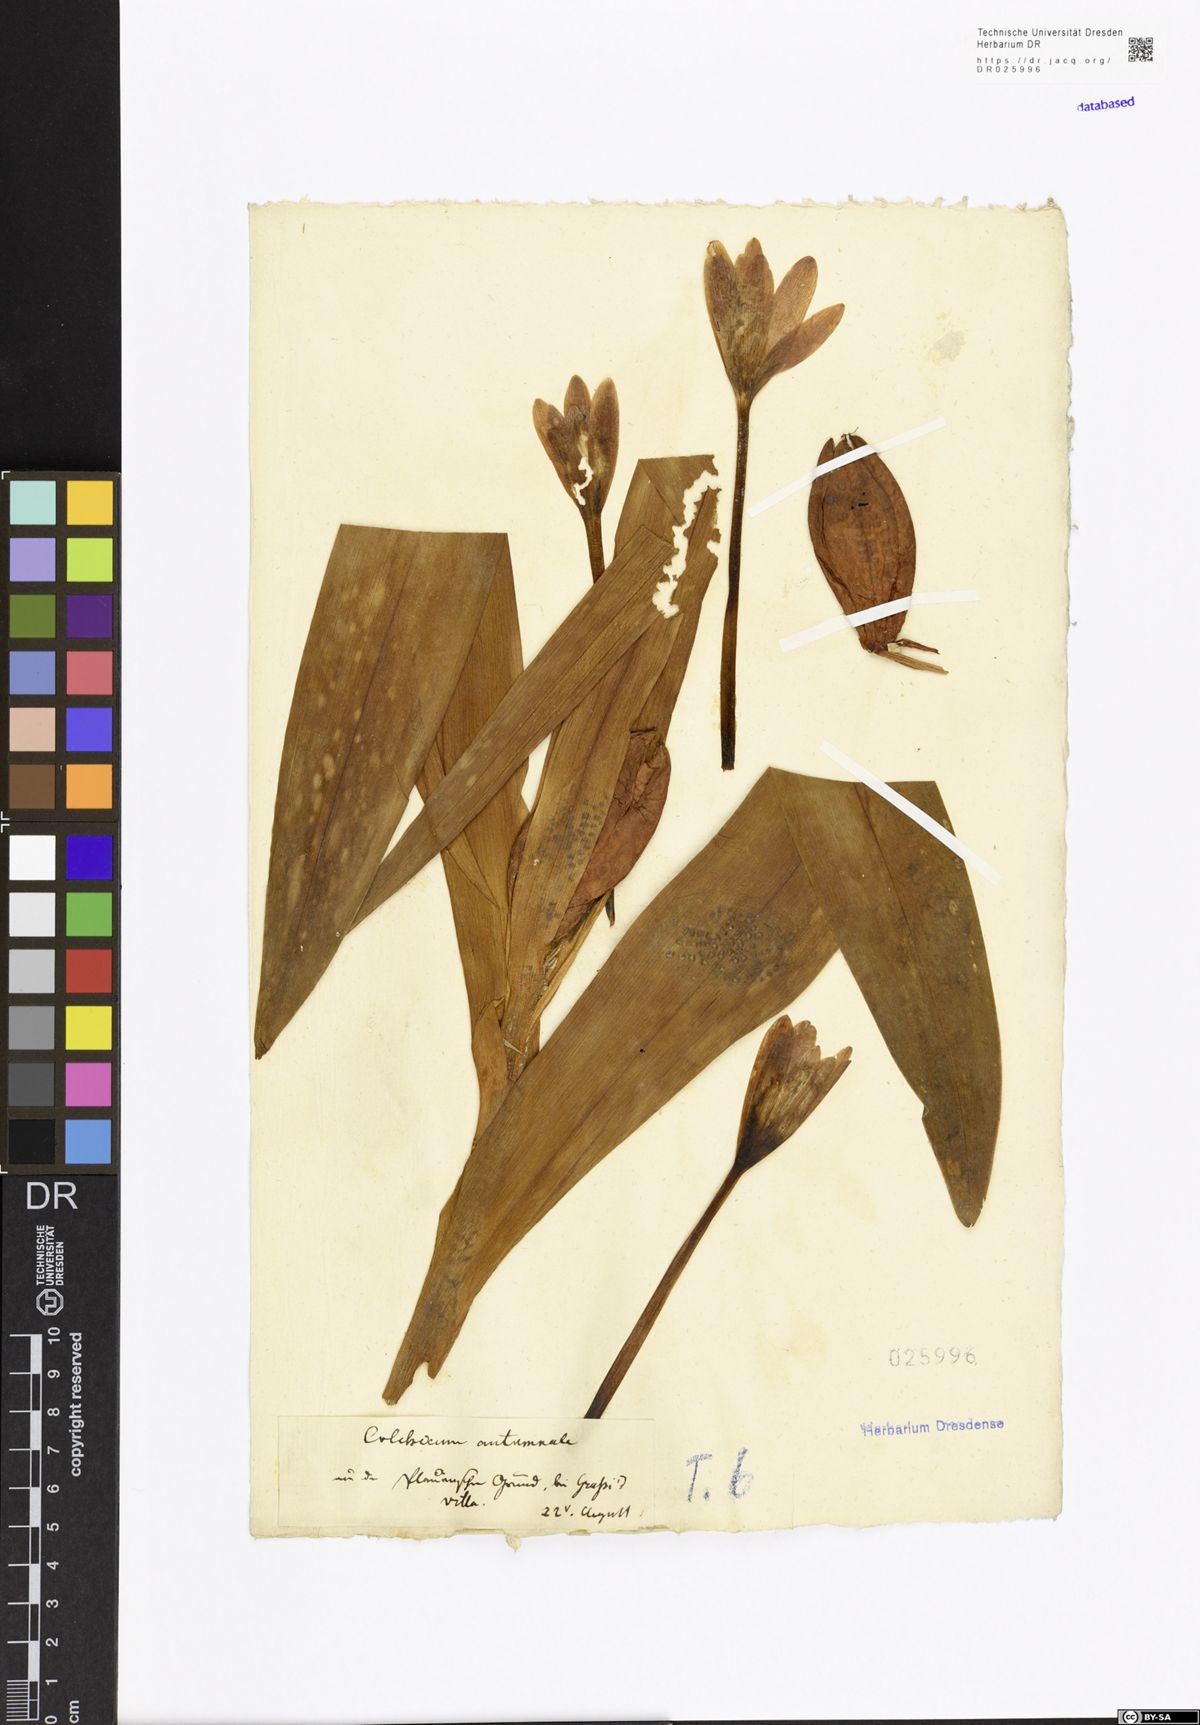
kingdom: Plantae
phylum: Tracheophyta
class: Liliopsida
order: Liliales
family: Colchicaceae
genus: Colchicum
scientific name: Colchicum autumnale
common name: Autumn crocus
